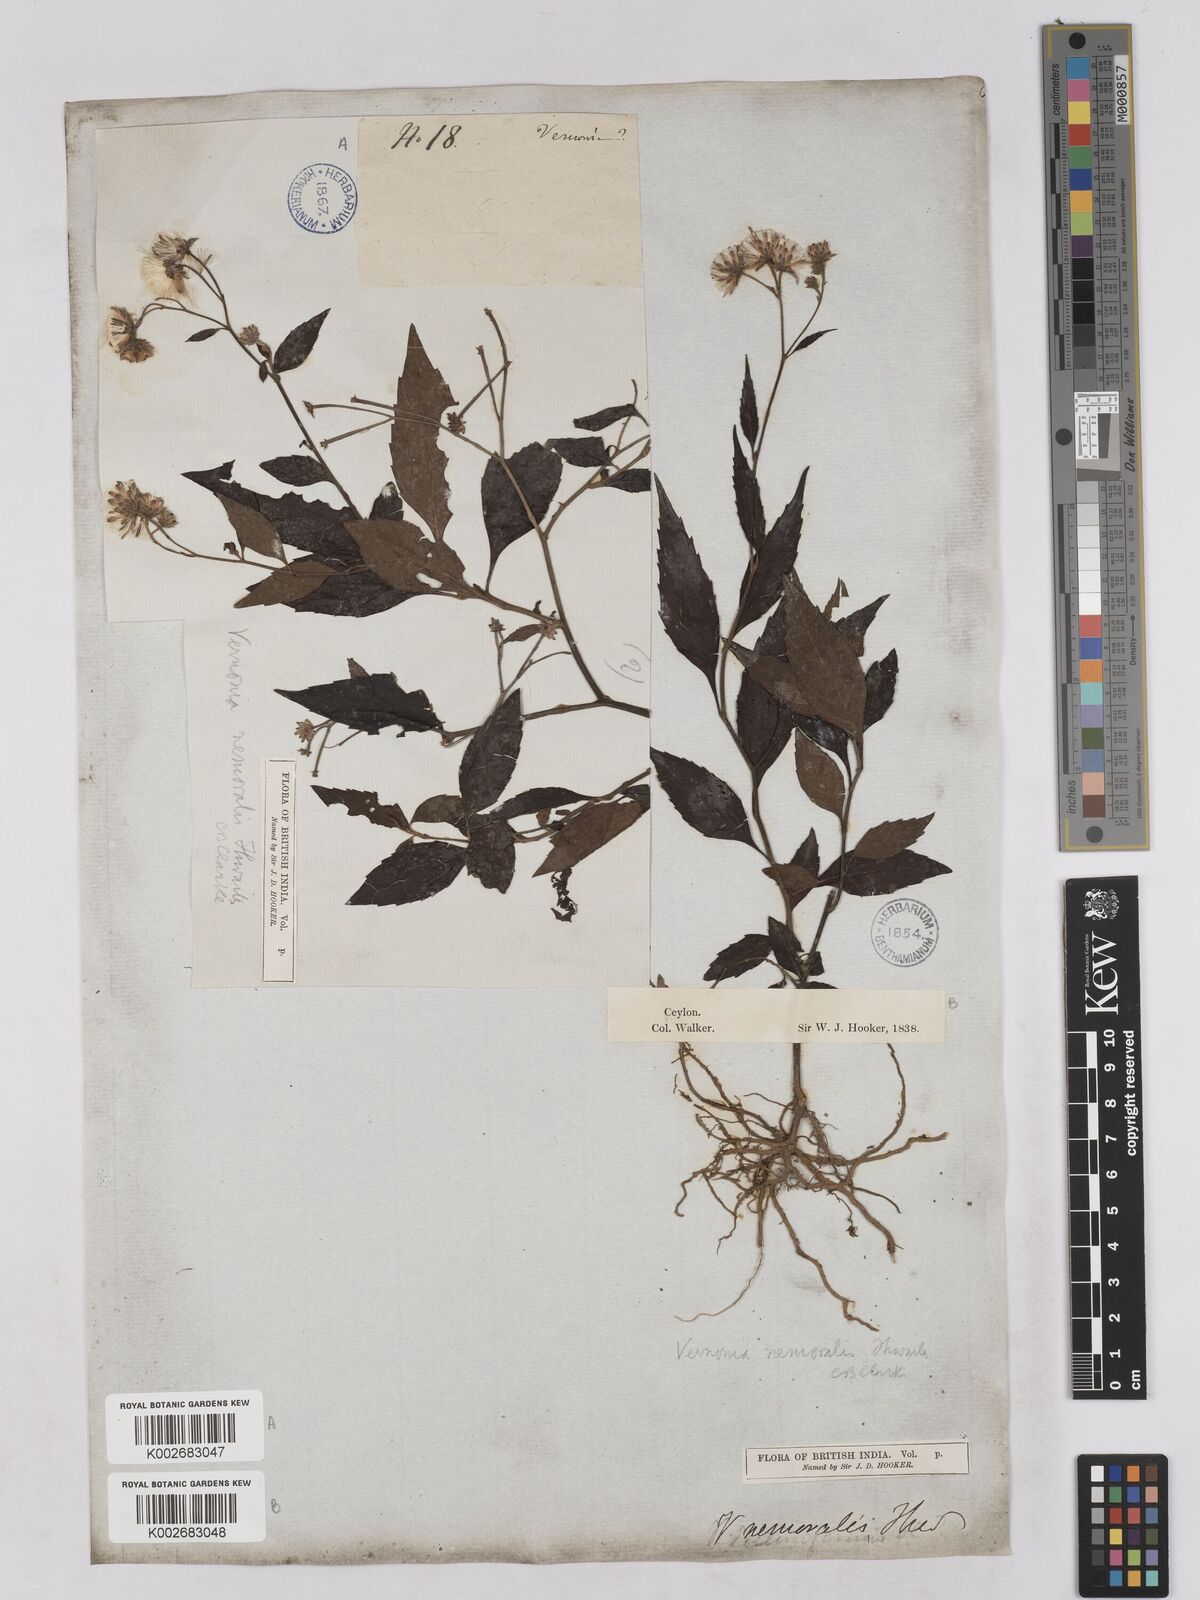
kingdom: Plantae
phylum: Tracheophyta
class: Magnoliopsida
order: Asterales
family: Asteraceae
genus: Acilepis
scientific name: Acilepis nemoralis
